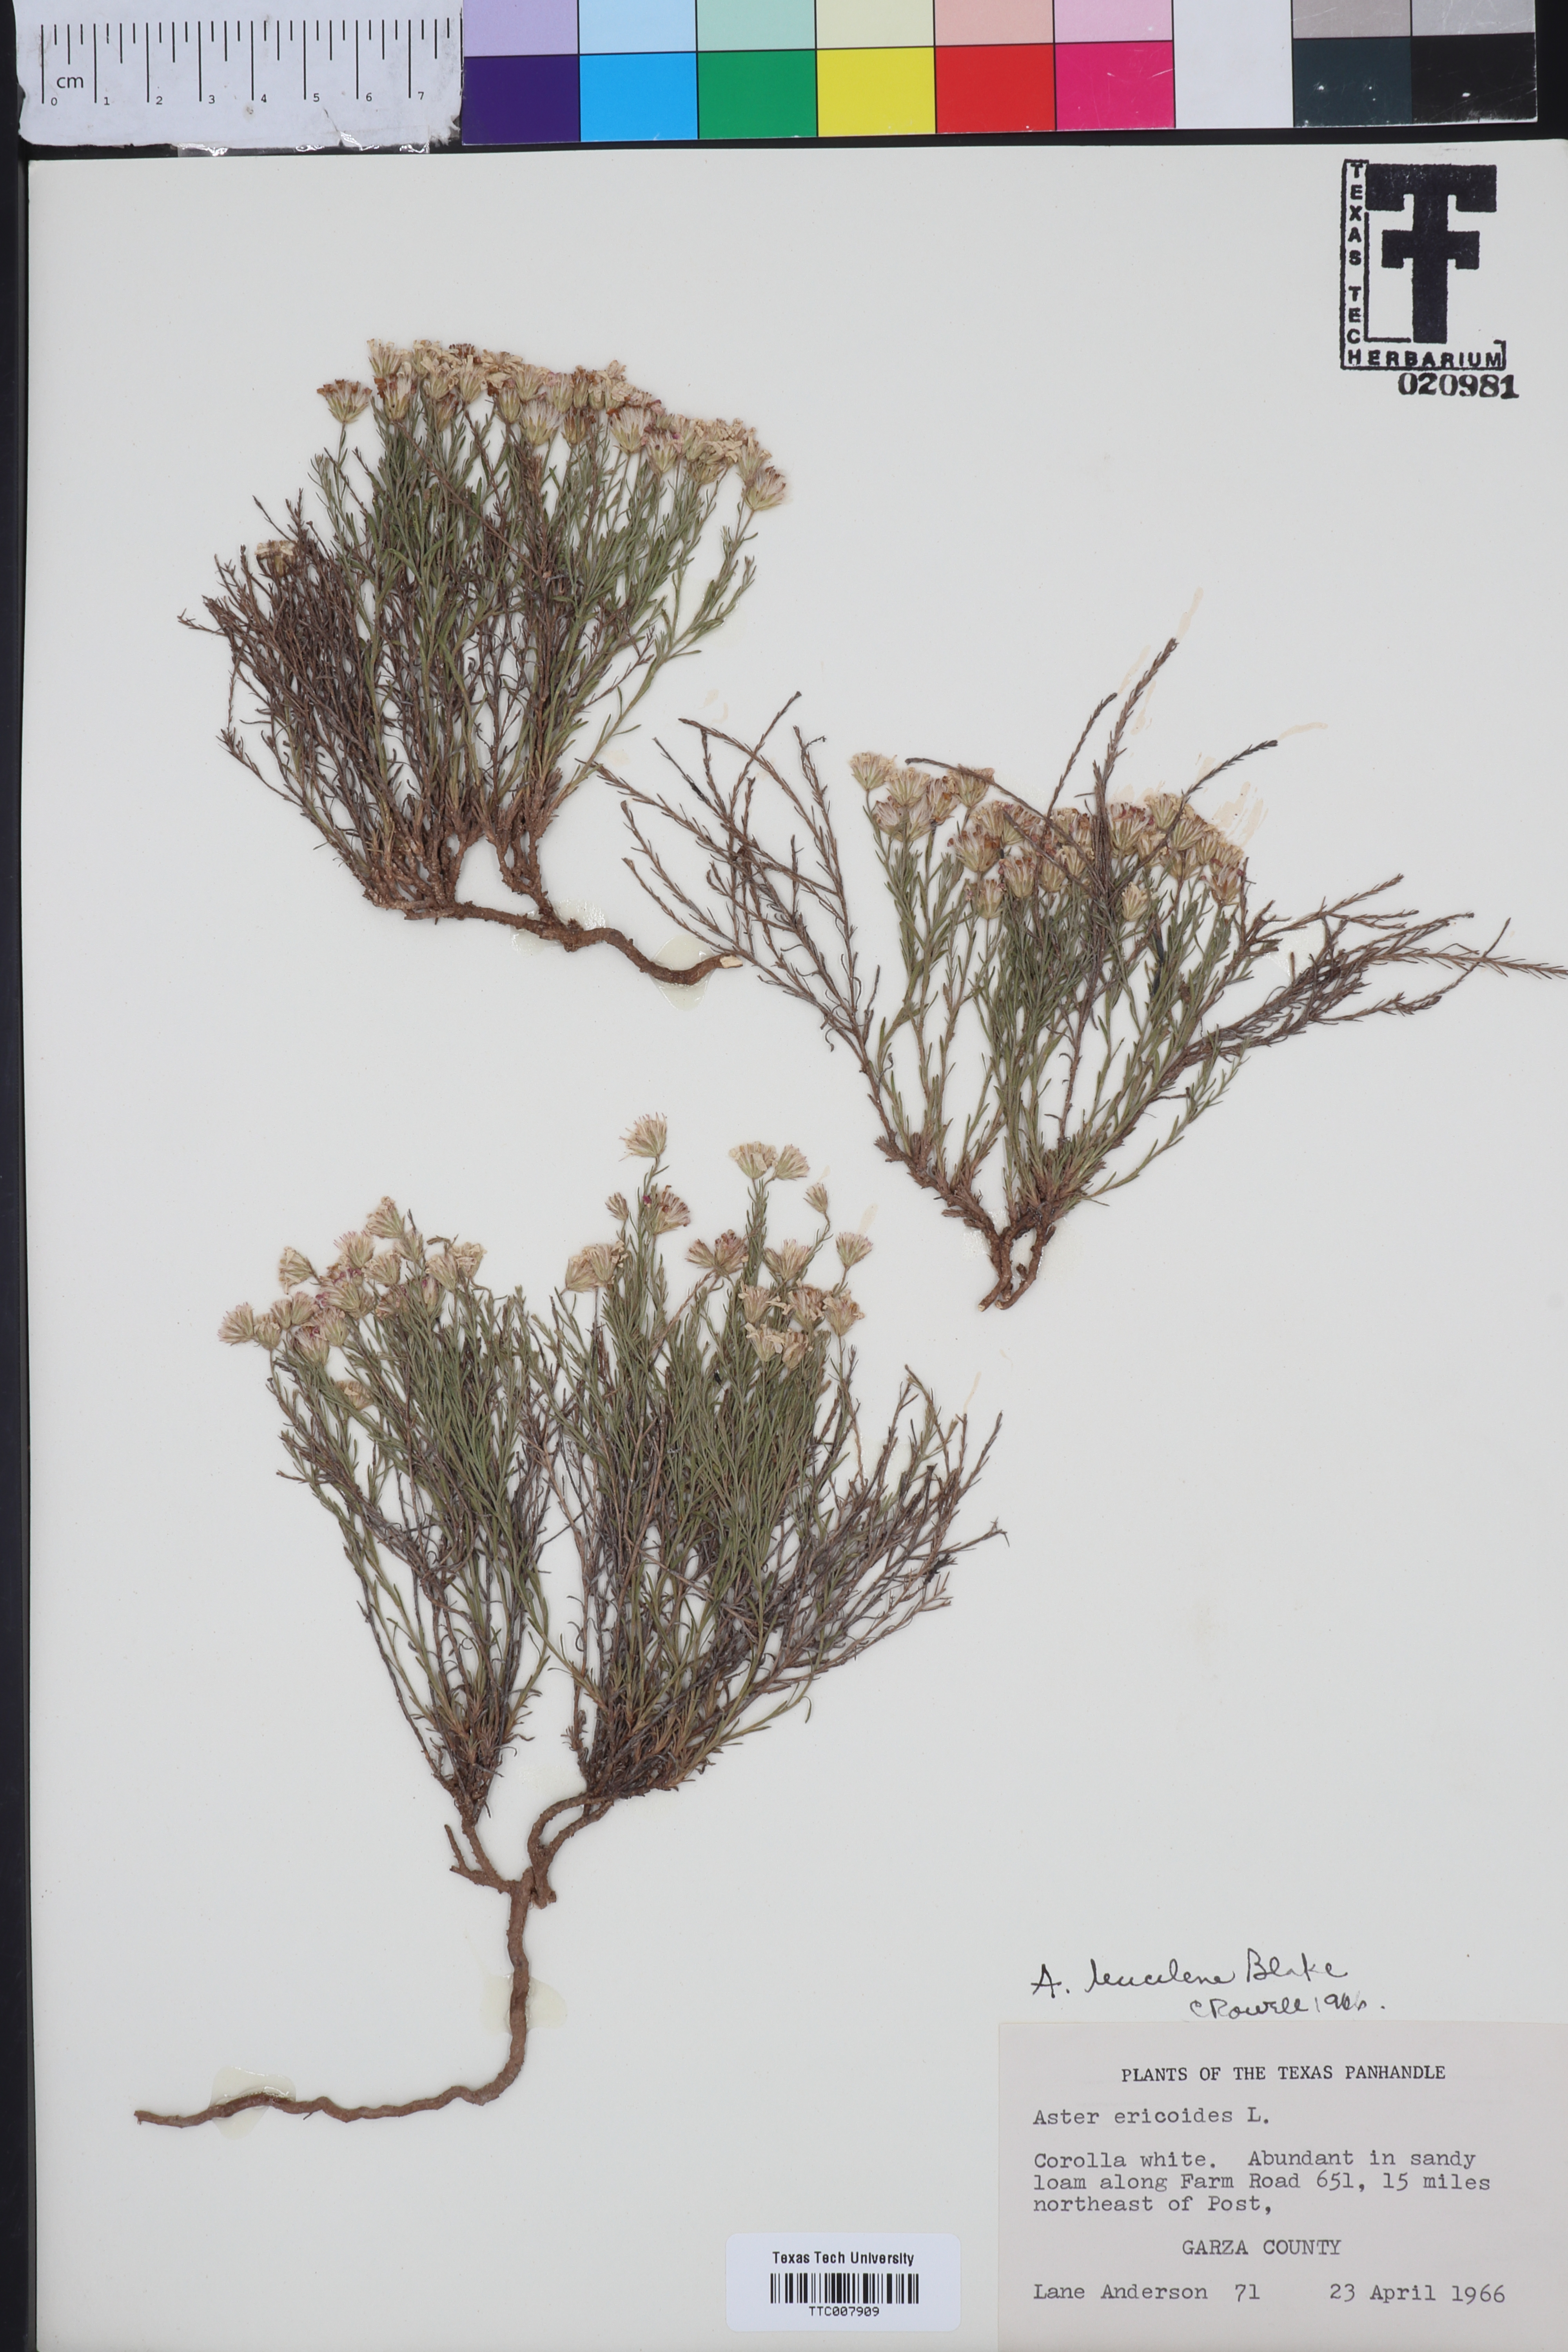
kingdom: Plantae
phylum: Tracheophyta
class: Magnoliopsida
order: Asterales
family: Asteraceae
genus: Chaetopappa
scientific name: Chaetopappa ericoides
